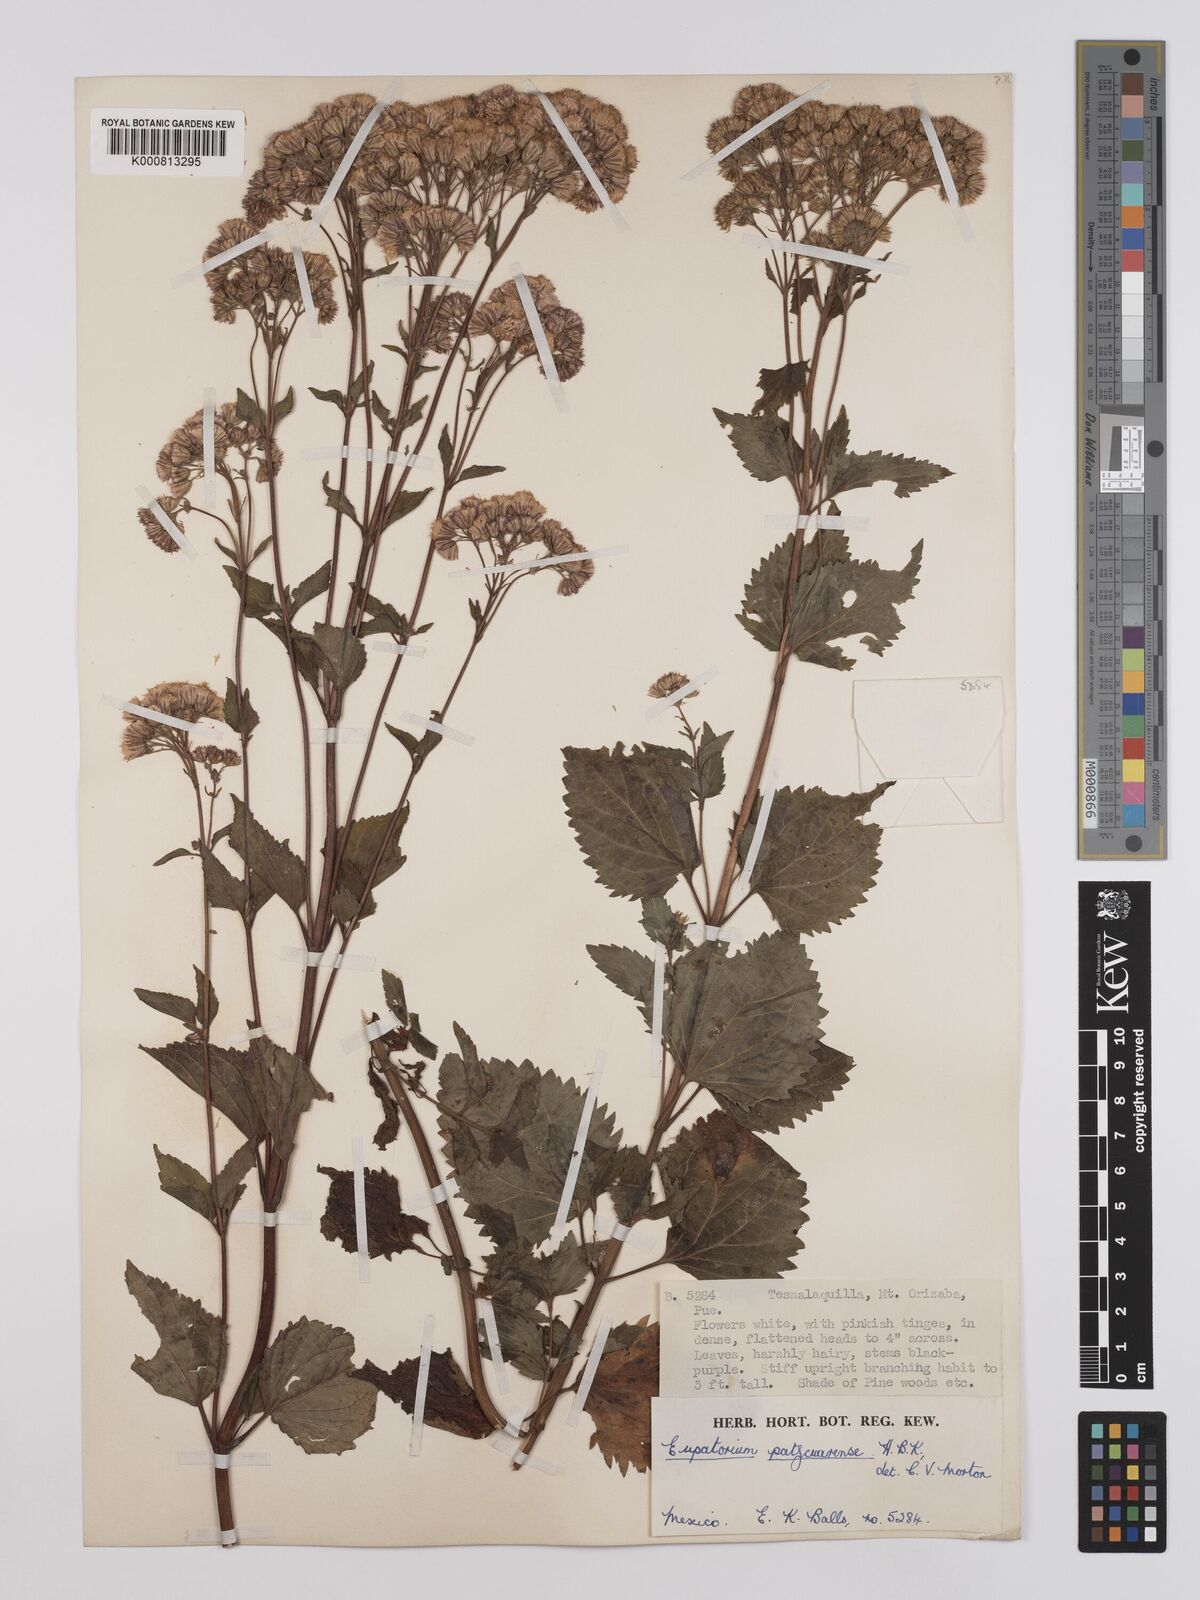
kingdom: Plantae
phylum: Tracheophyta
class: Magnoliopsida
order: Asterales
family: Asteraceae
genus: Ageratina
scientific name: Ageratina pazcuarensis
